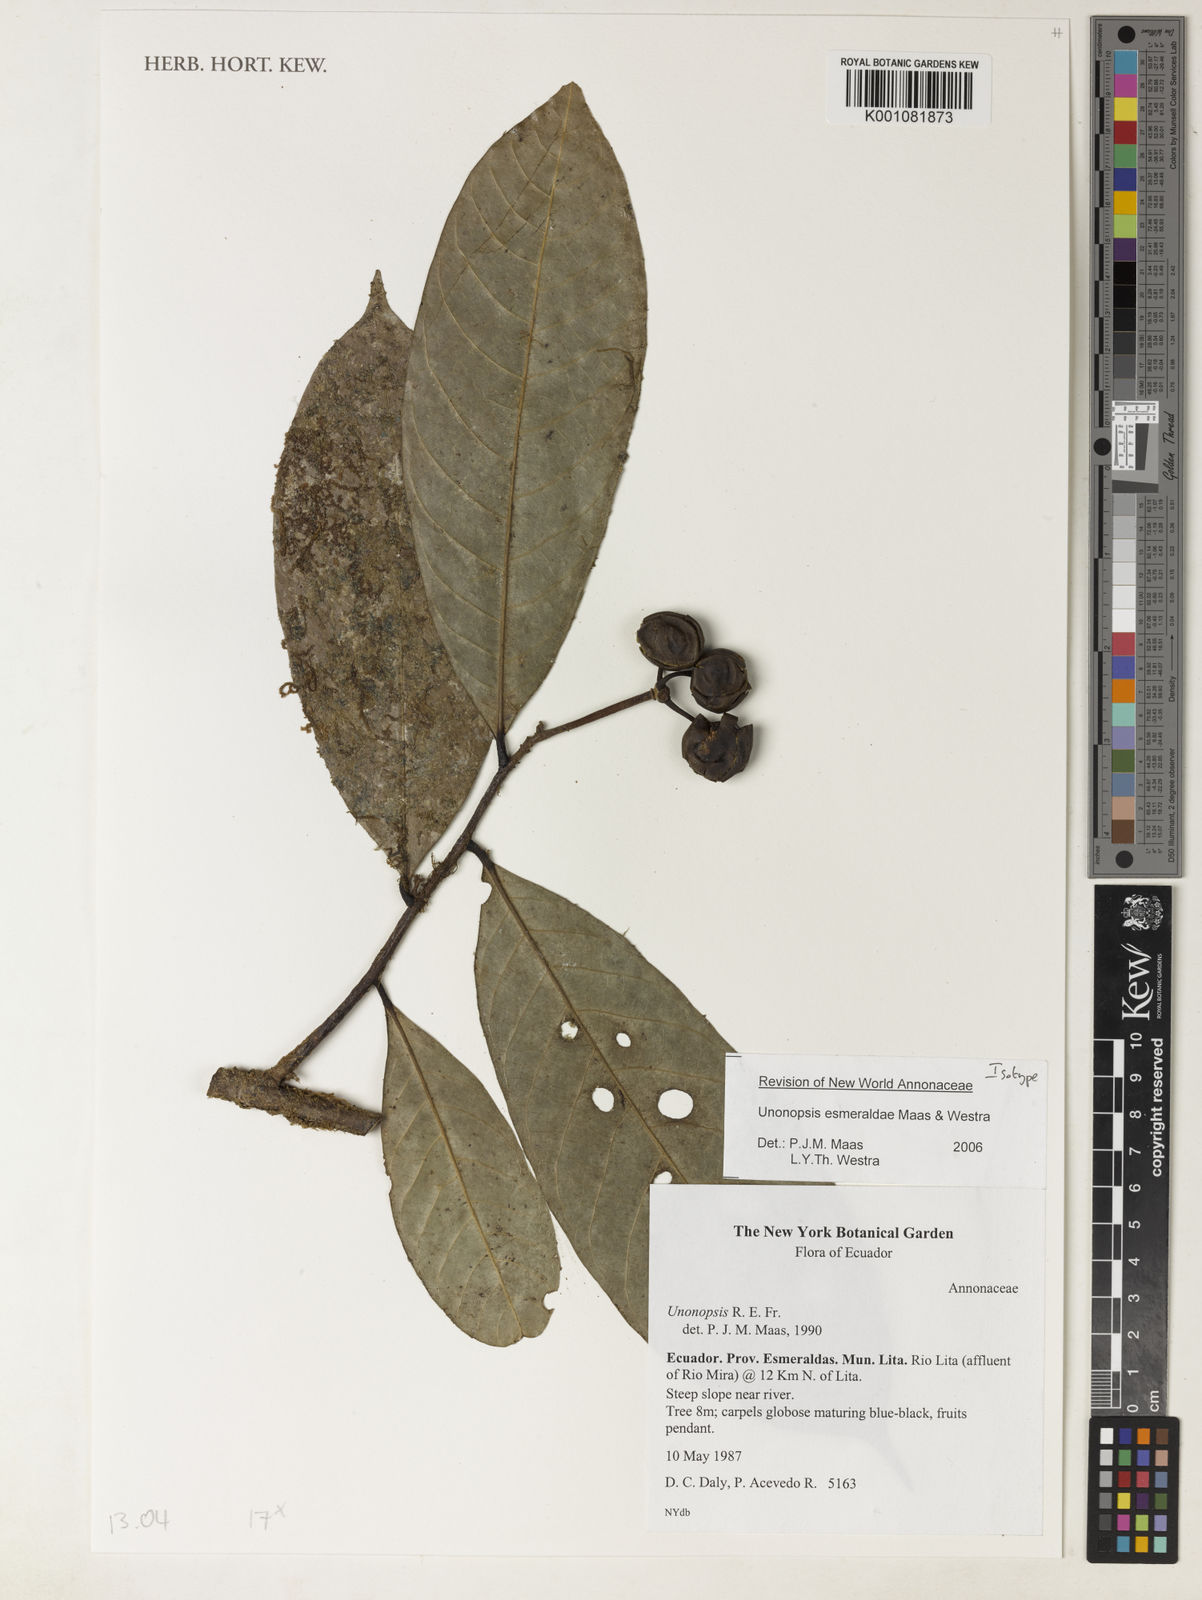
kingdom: Plantae
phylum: Tracheophyta
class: Magnoliopsida
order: Magnoliales
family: Annonaceae
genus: Unonopsis
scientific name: Unonopsis esmeraldae
